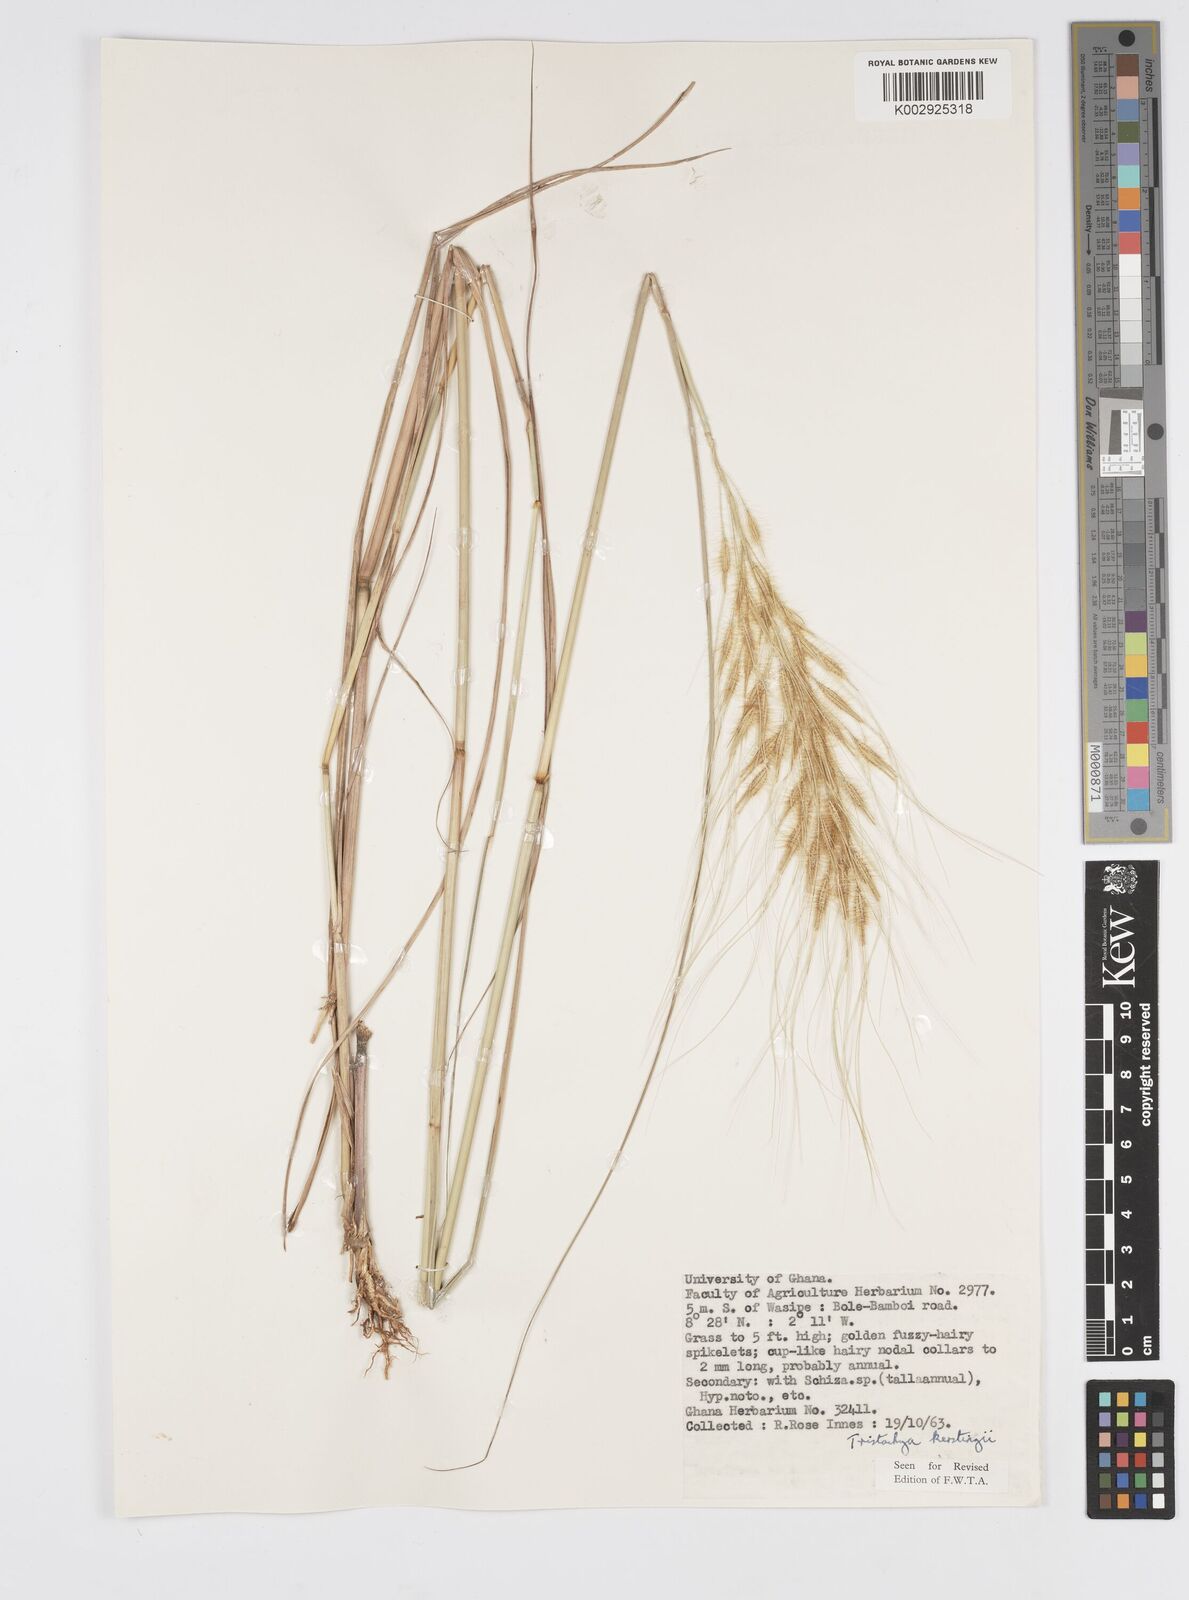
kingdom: Plantae
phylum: Tracheophyta
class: Liliopsida
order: Poales
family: Poaceae
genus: Loudetiopsis
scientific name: Loudetiopsis kerstingii
